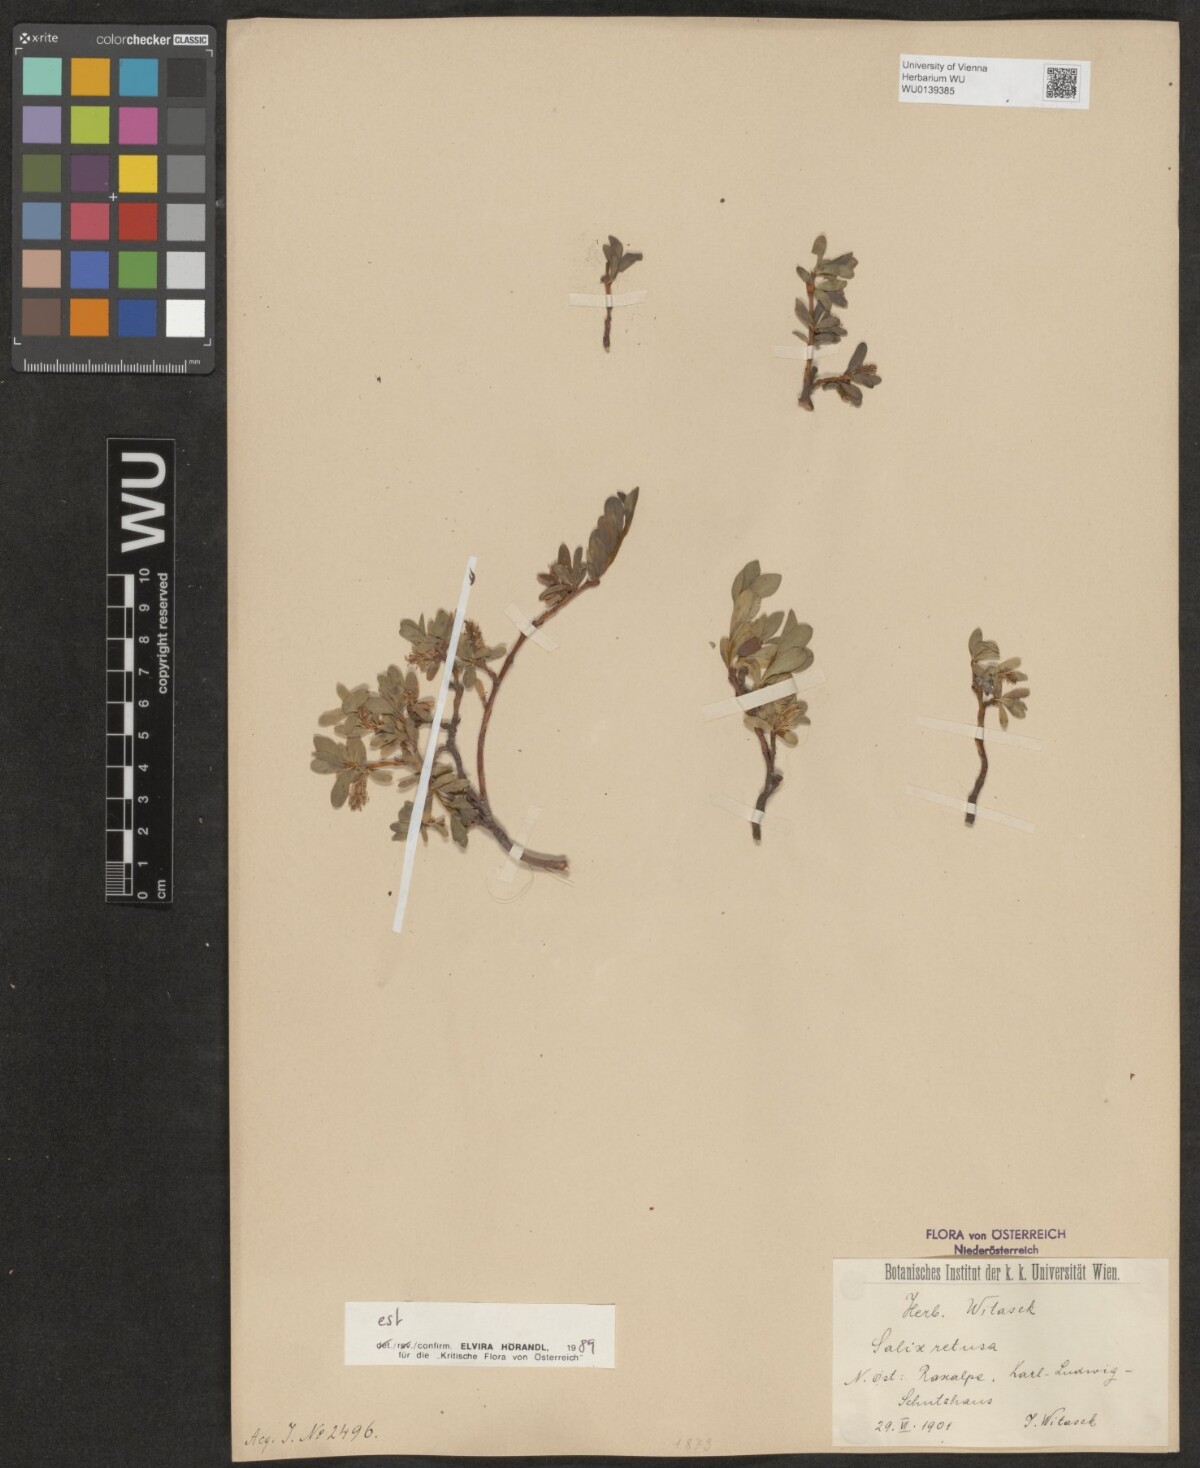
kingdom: Plantae
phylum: Tracheophyta
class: Magnoliopsida
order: Malpighiales
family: Salicaceae
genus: Salix
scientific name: Salix retusa
